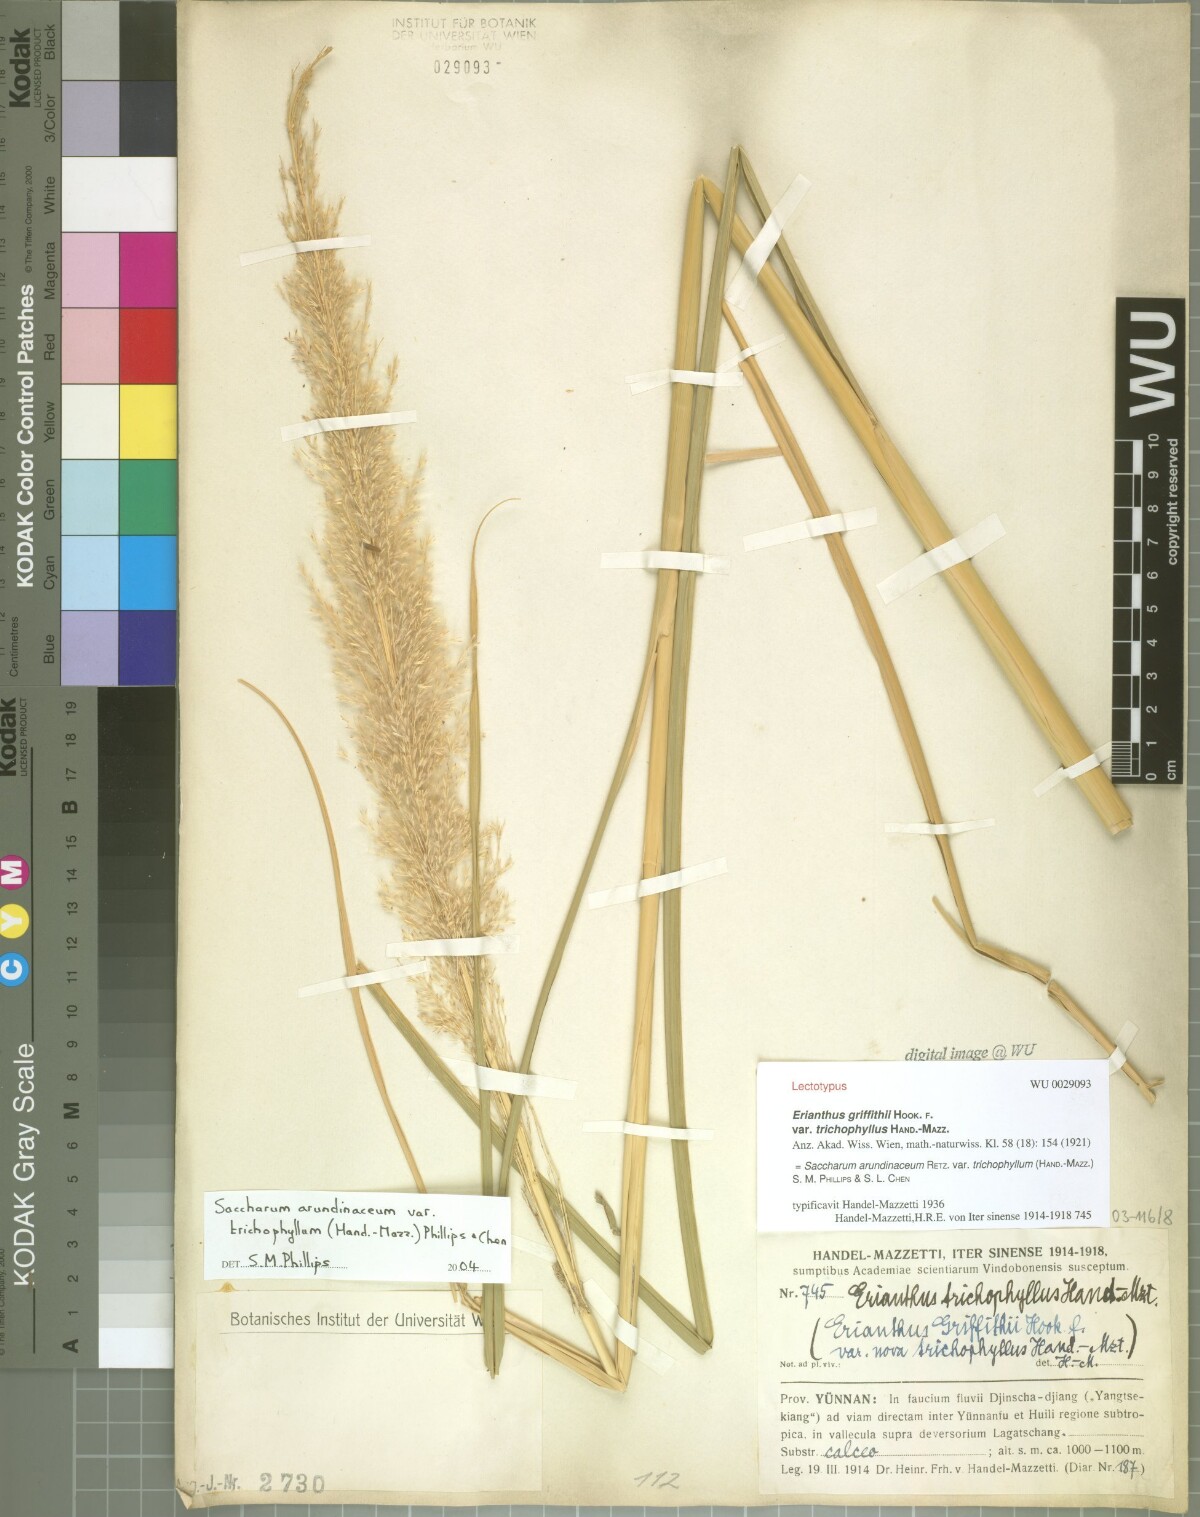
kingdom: Plantae
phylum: Tracheophyta
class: Liliopsida
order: Poales
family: Poaceae
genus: Tripidium
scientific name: Tripidium arundinaceum
